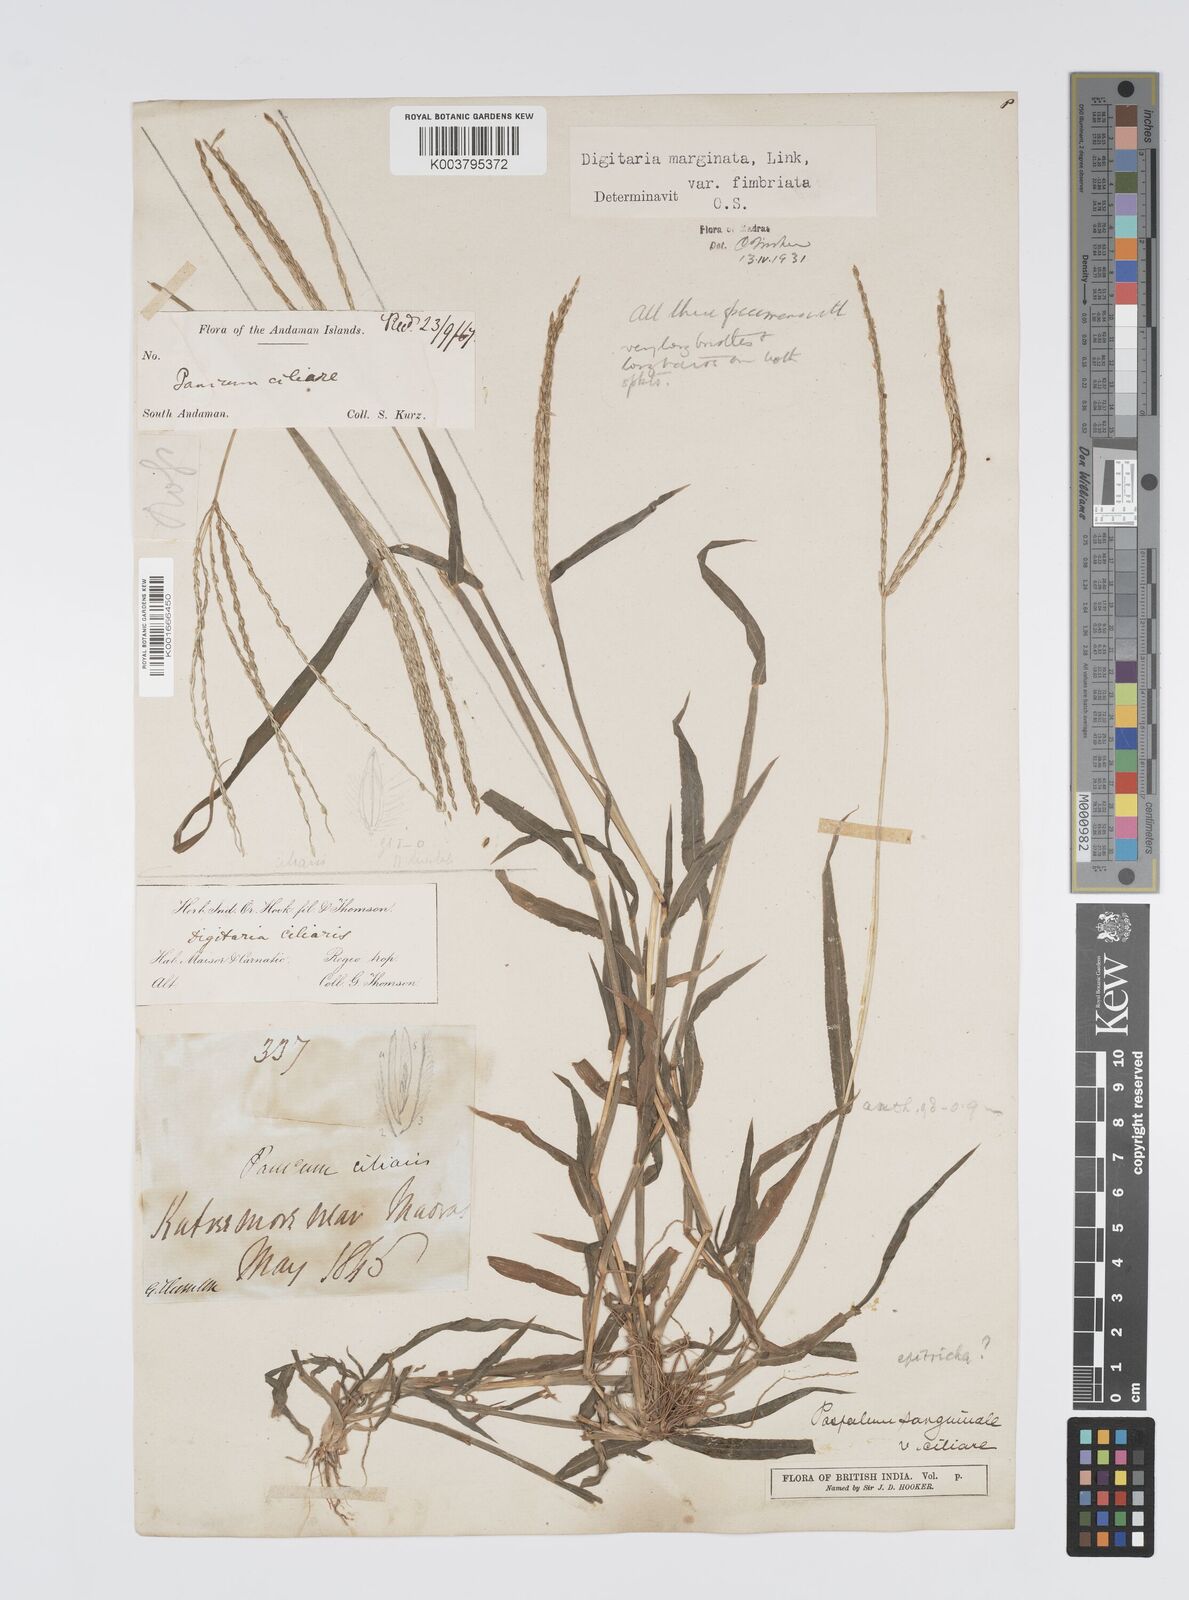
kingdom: Plantae
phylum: Tracheophyta
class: Liliopsida
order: Poales
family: Poaceae
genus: Digitaria
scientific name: Digitaria ciliaris
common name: Tropical finger-grass
